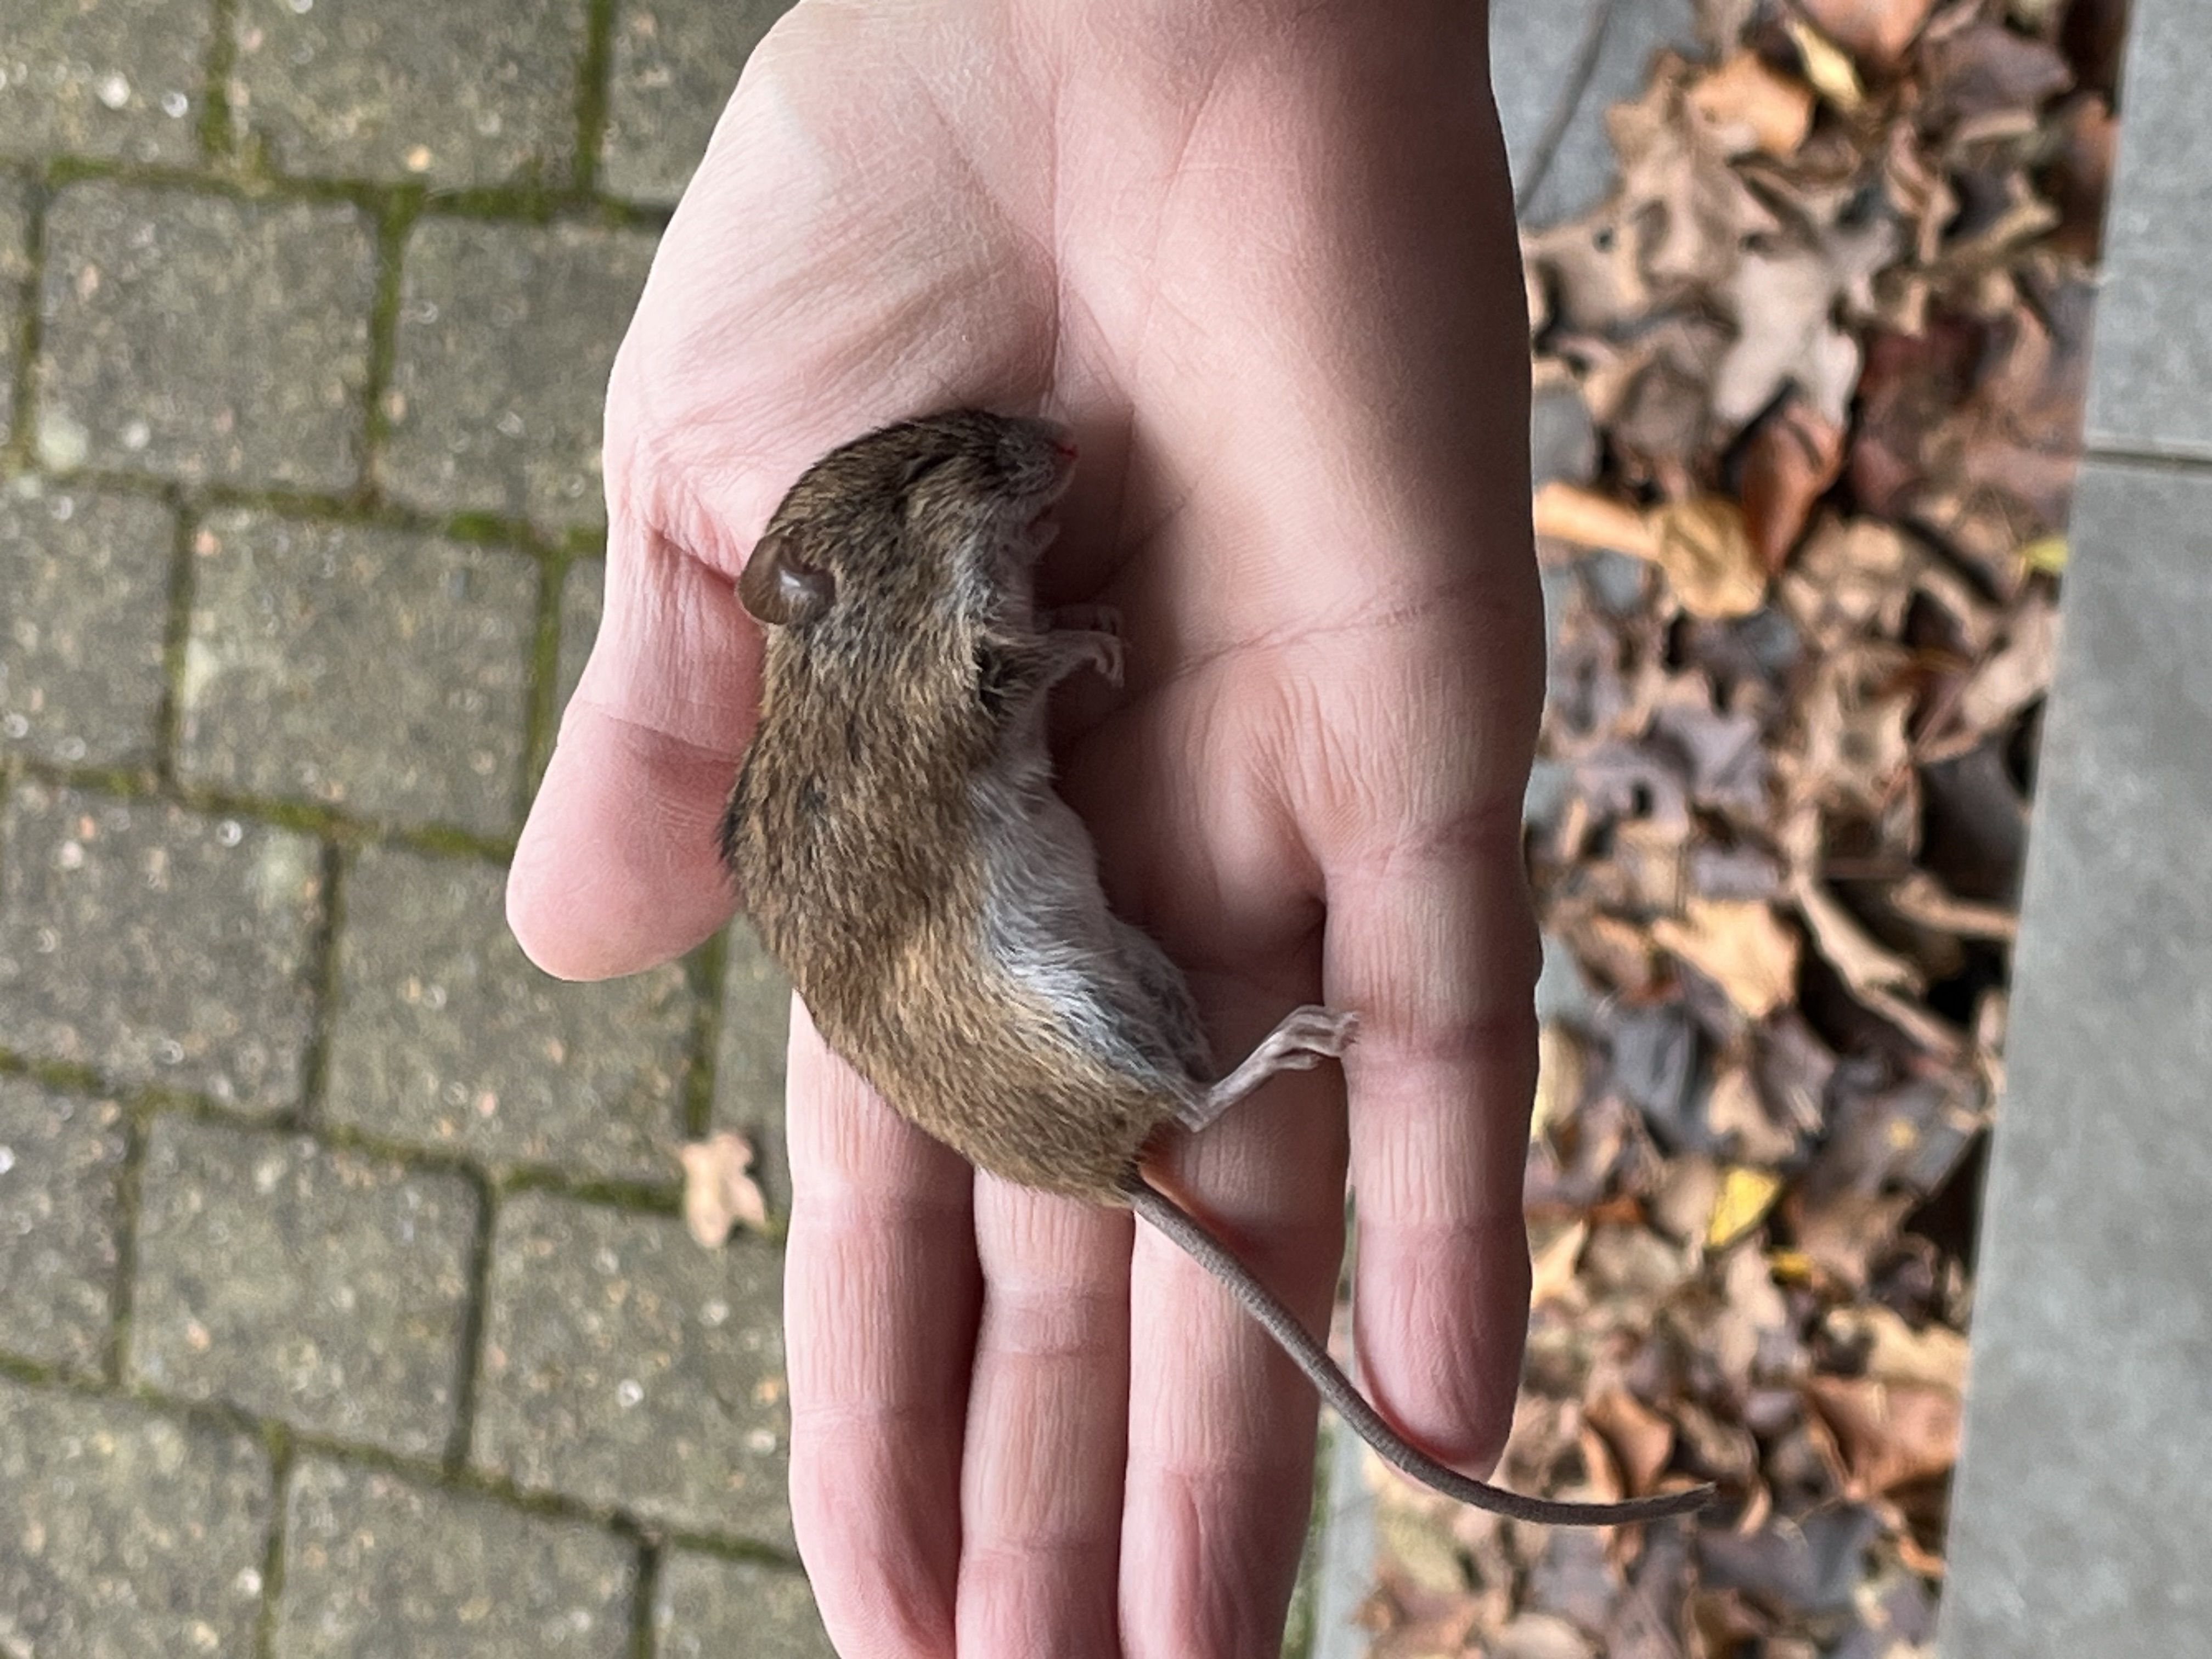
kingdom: Animalia
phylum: Chordata
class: Mammalia
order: Rodentia
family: Muridae
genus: Apodemus
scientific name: Apodemus agrarius
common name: Brandmus
